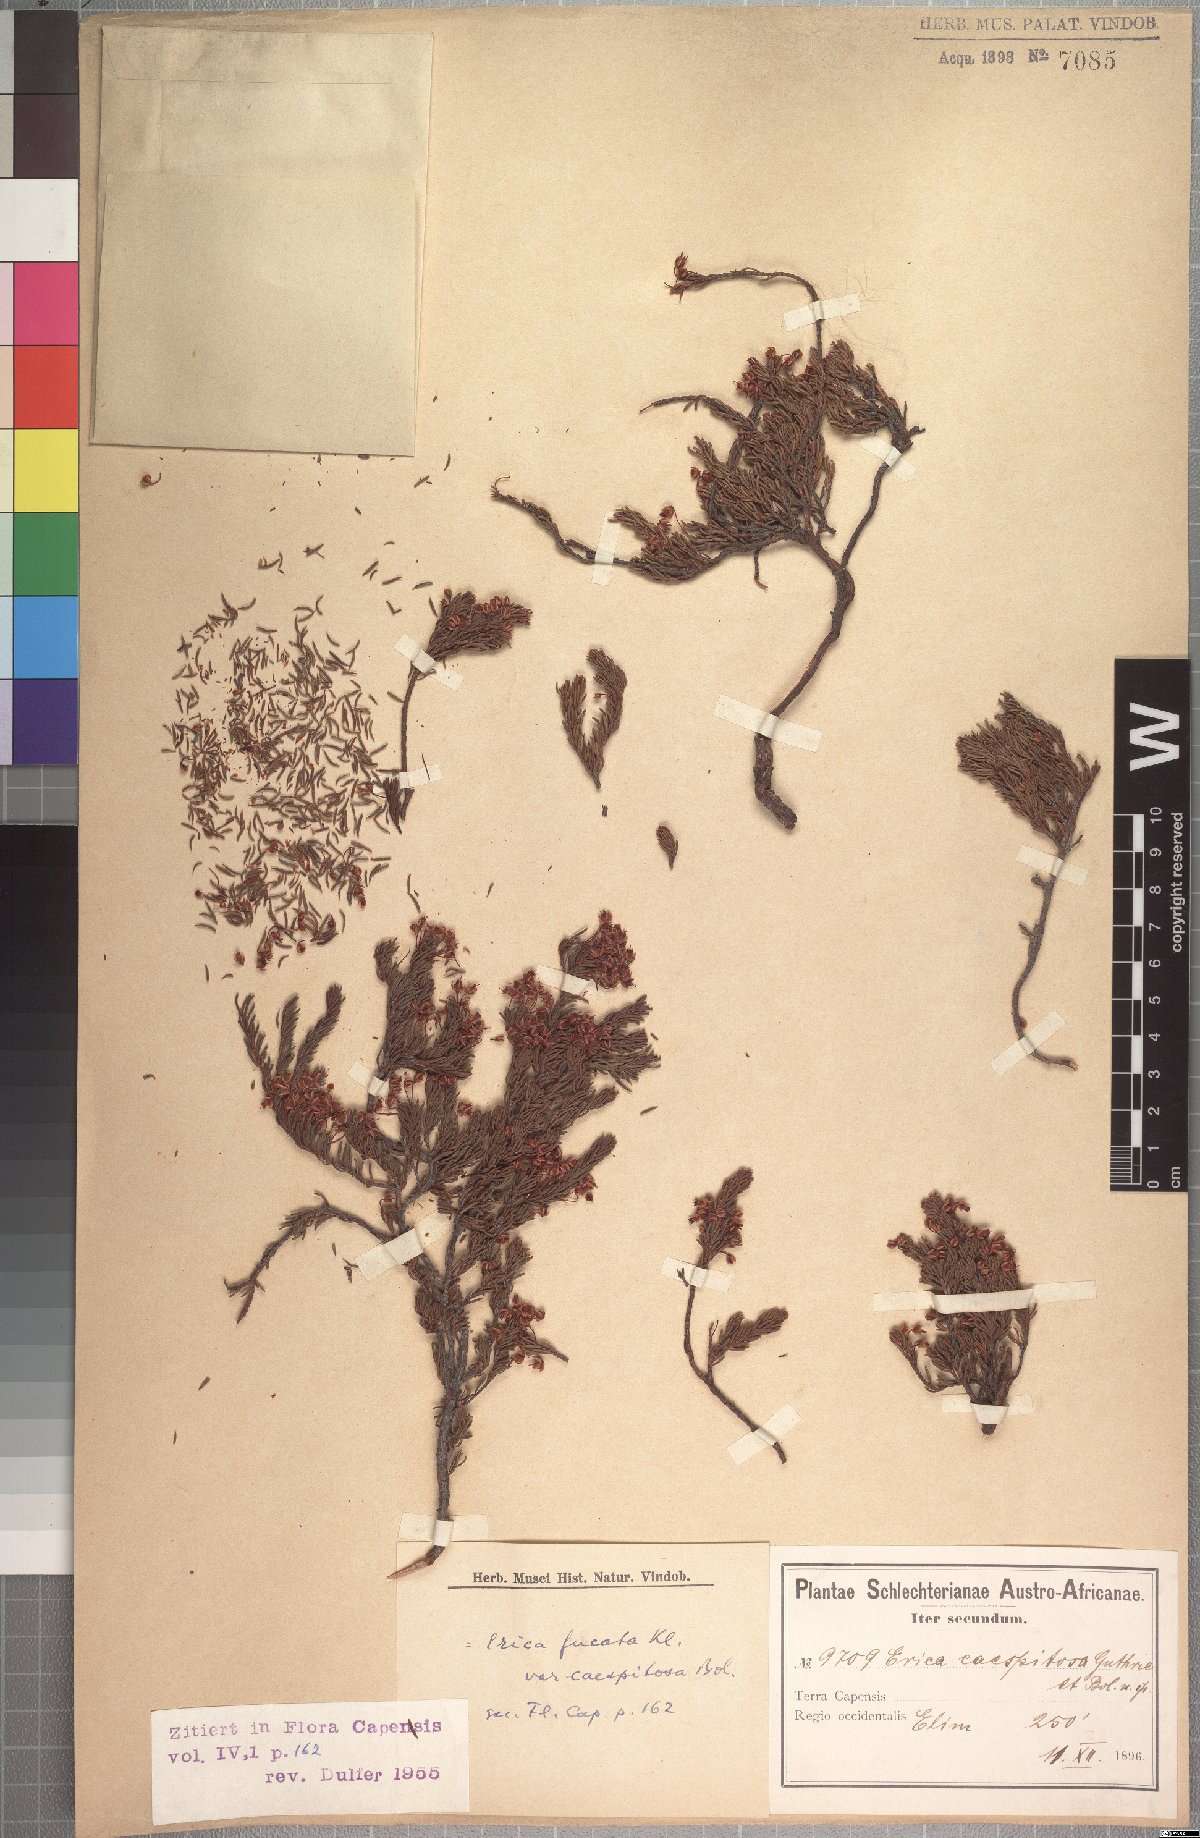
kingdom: Plantae
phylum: Tracheophyta
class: Magnoliopsida
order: Ericales
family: Ericaceae
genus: Erica
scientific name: Erica rubiginosa
